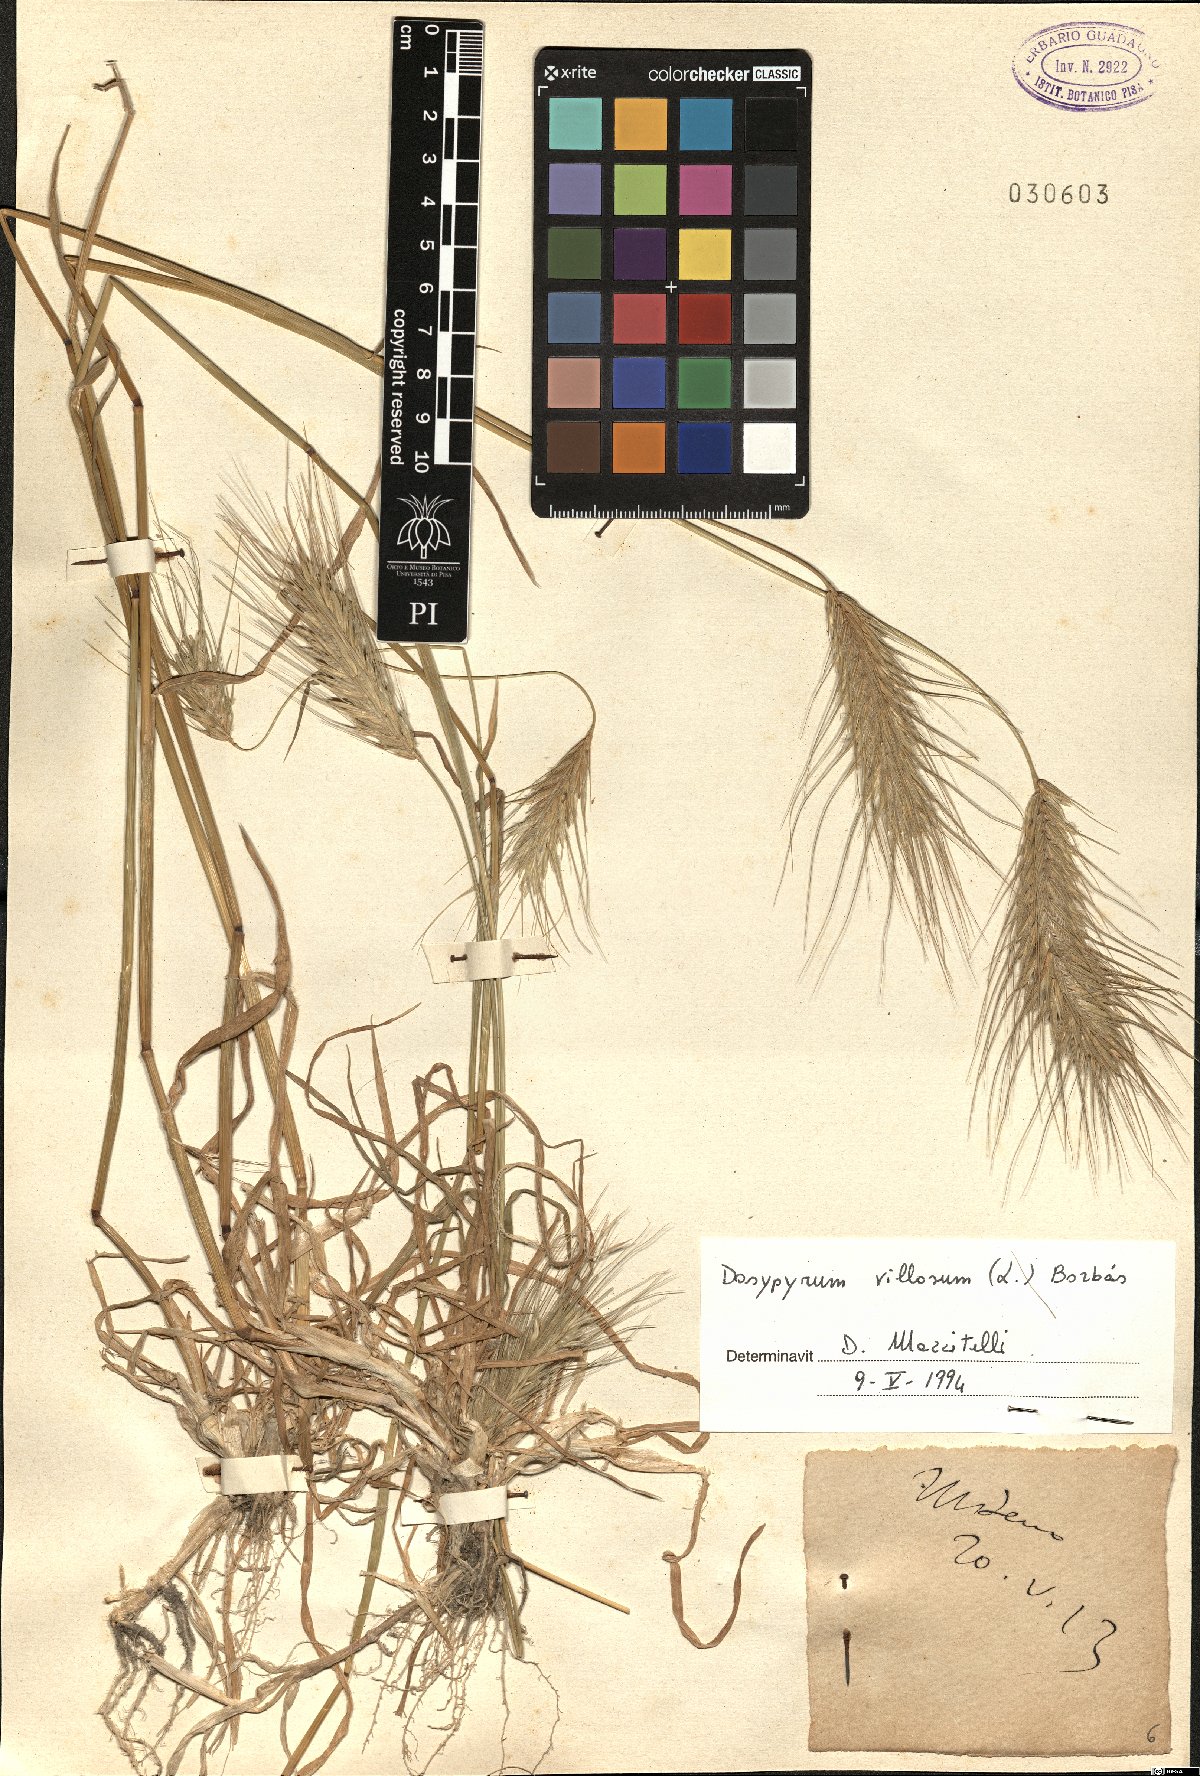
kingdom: Plantae
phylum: Tracheophyta
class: Liliopsida
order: Poales
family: Poaceae
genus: Dasypyrum
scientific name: Dasypyrum villosum
